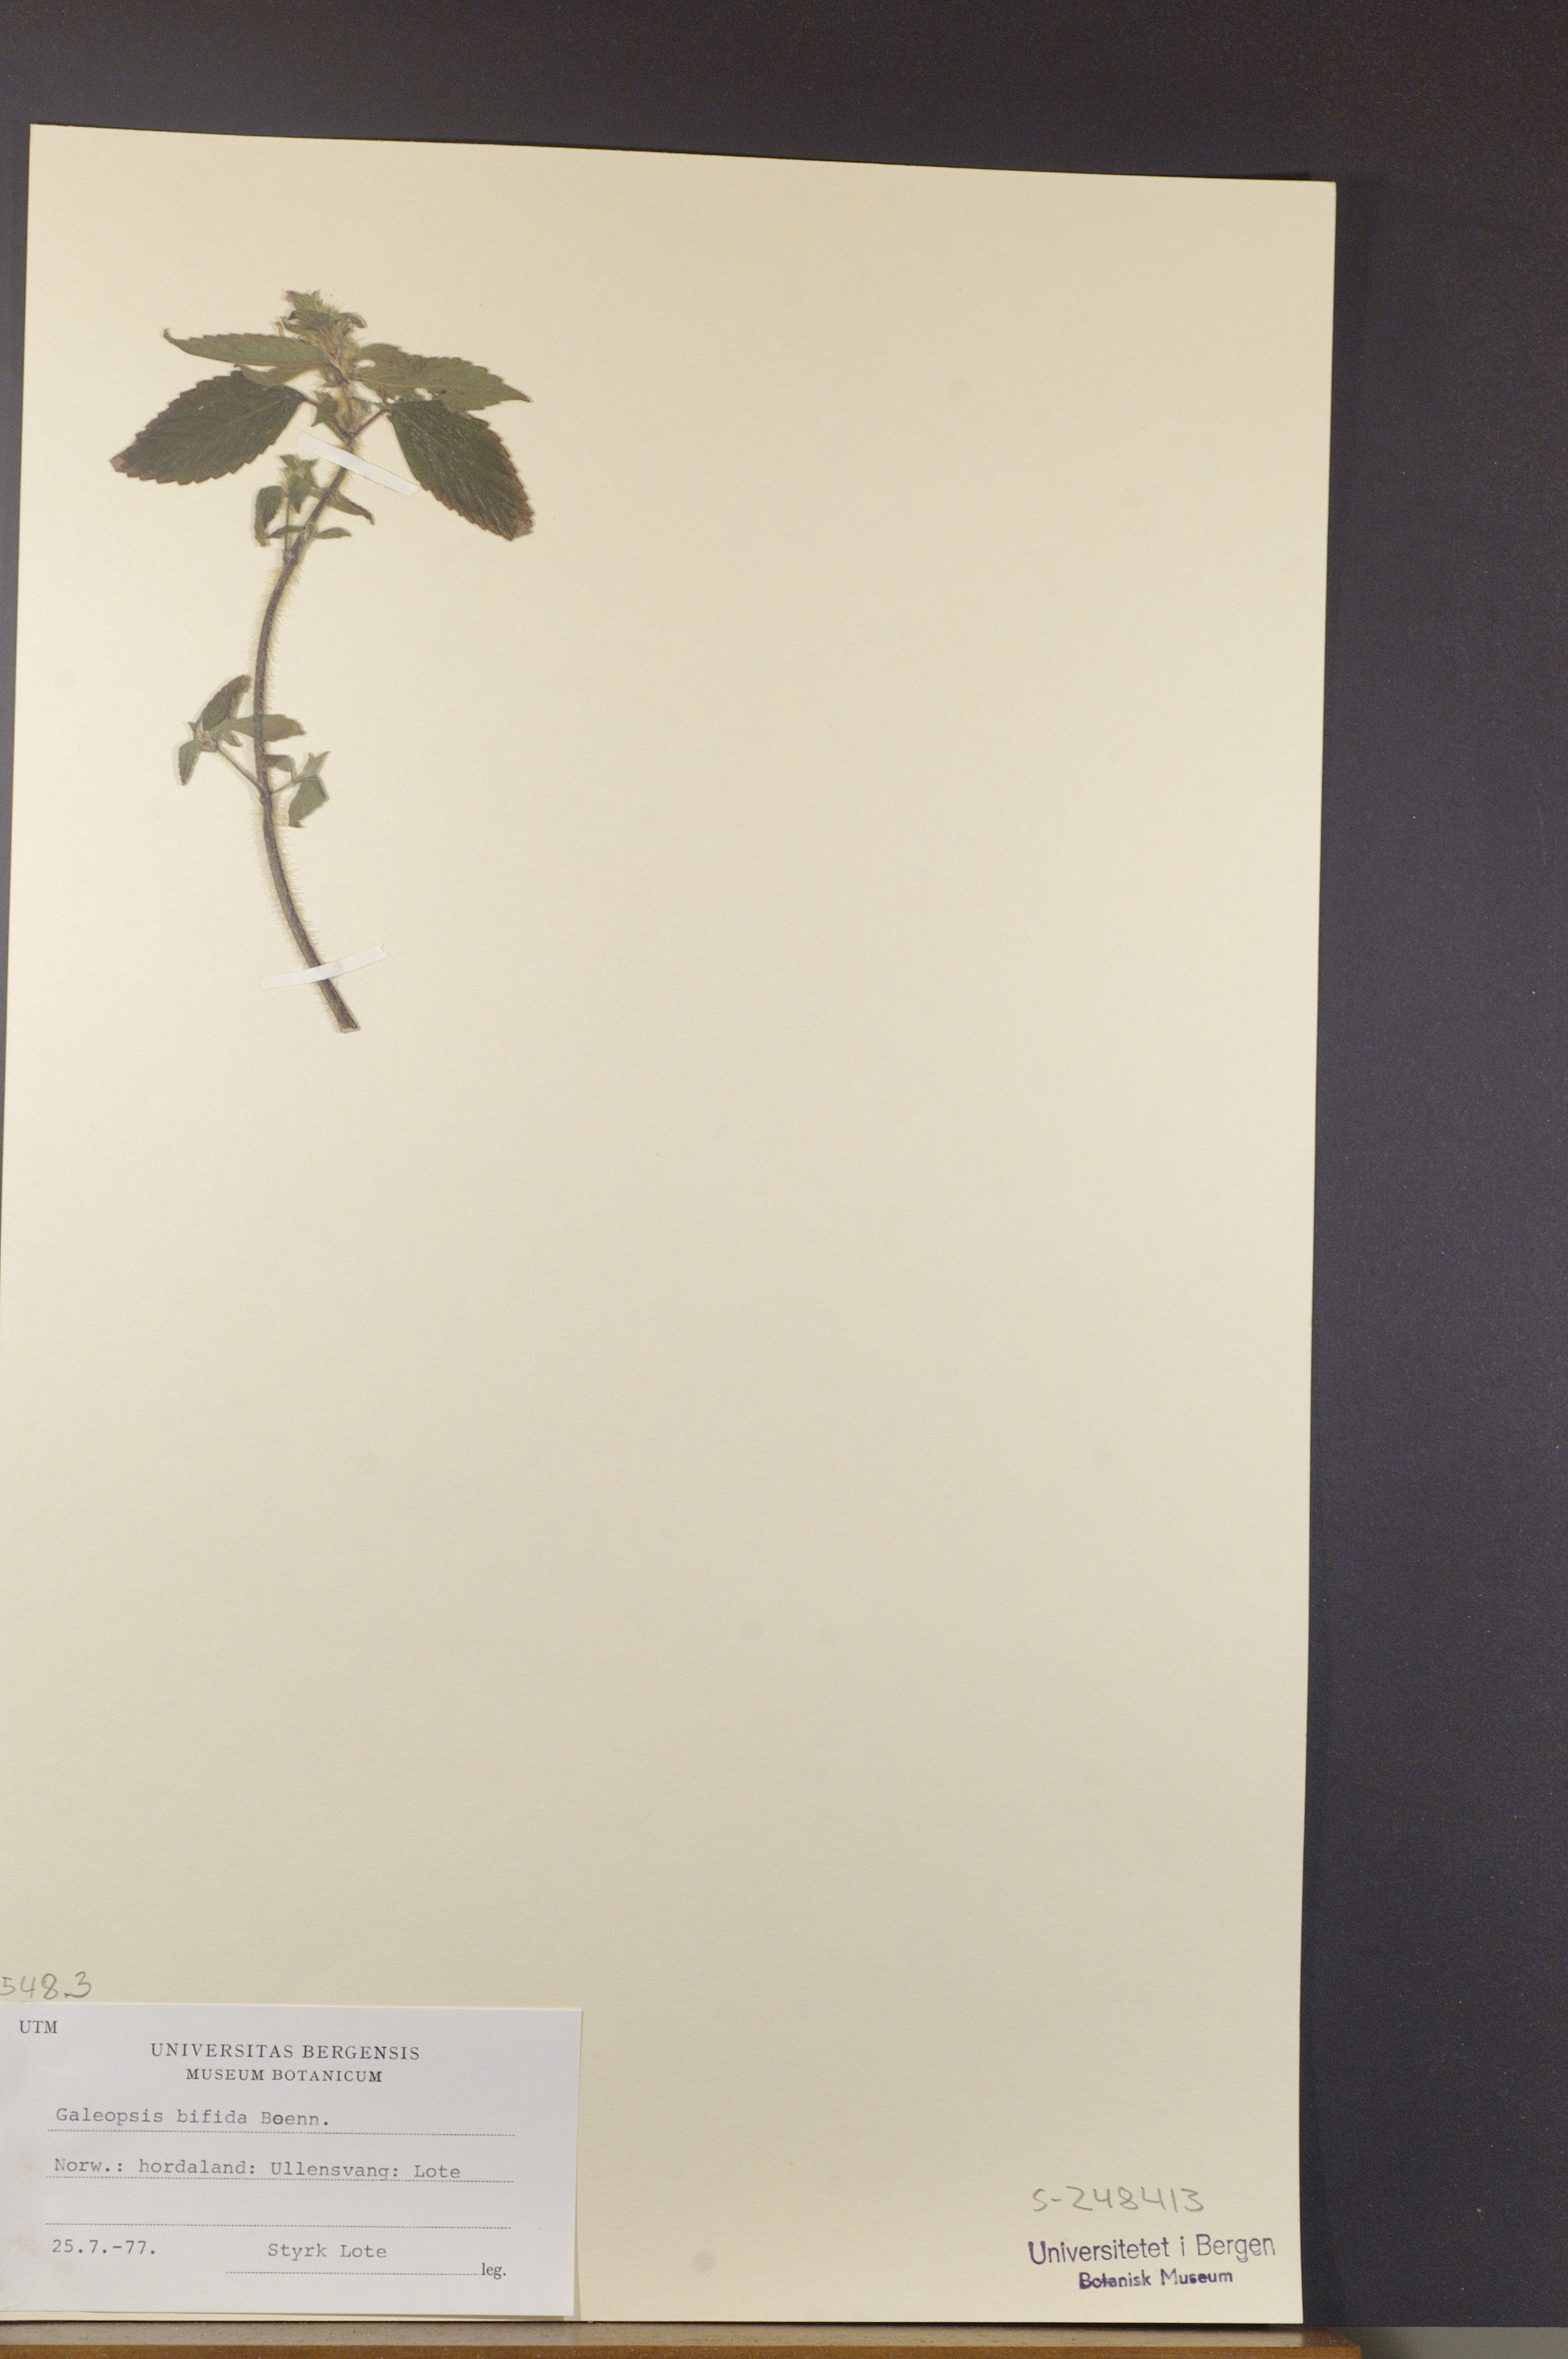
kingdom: Plantae
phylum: Tracheophyta
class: Magnoliopsida
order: Lamiales
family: Lamiaceae
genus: Galeopsis
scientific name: Galeopsis bifida
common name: Bifid hemp-nettle
